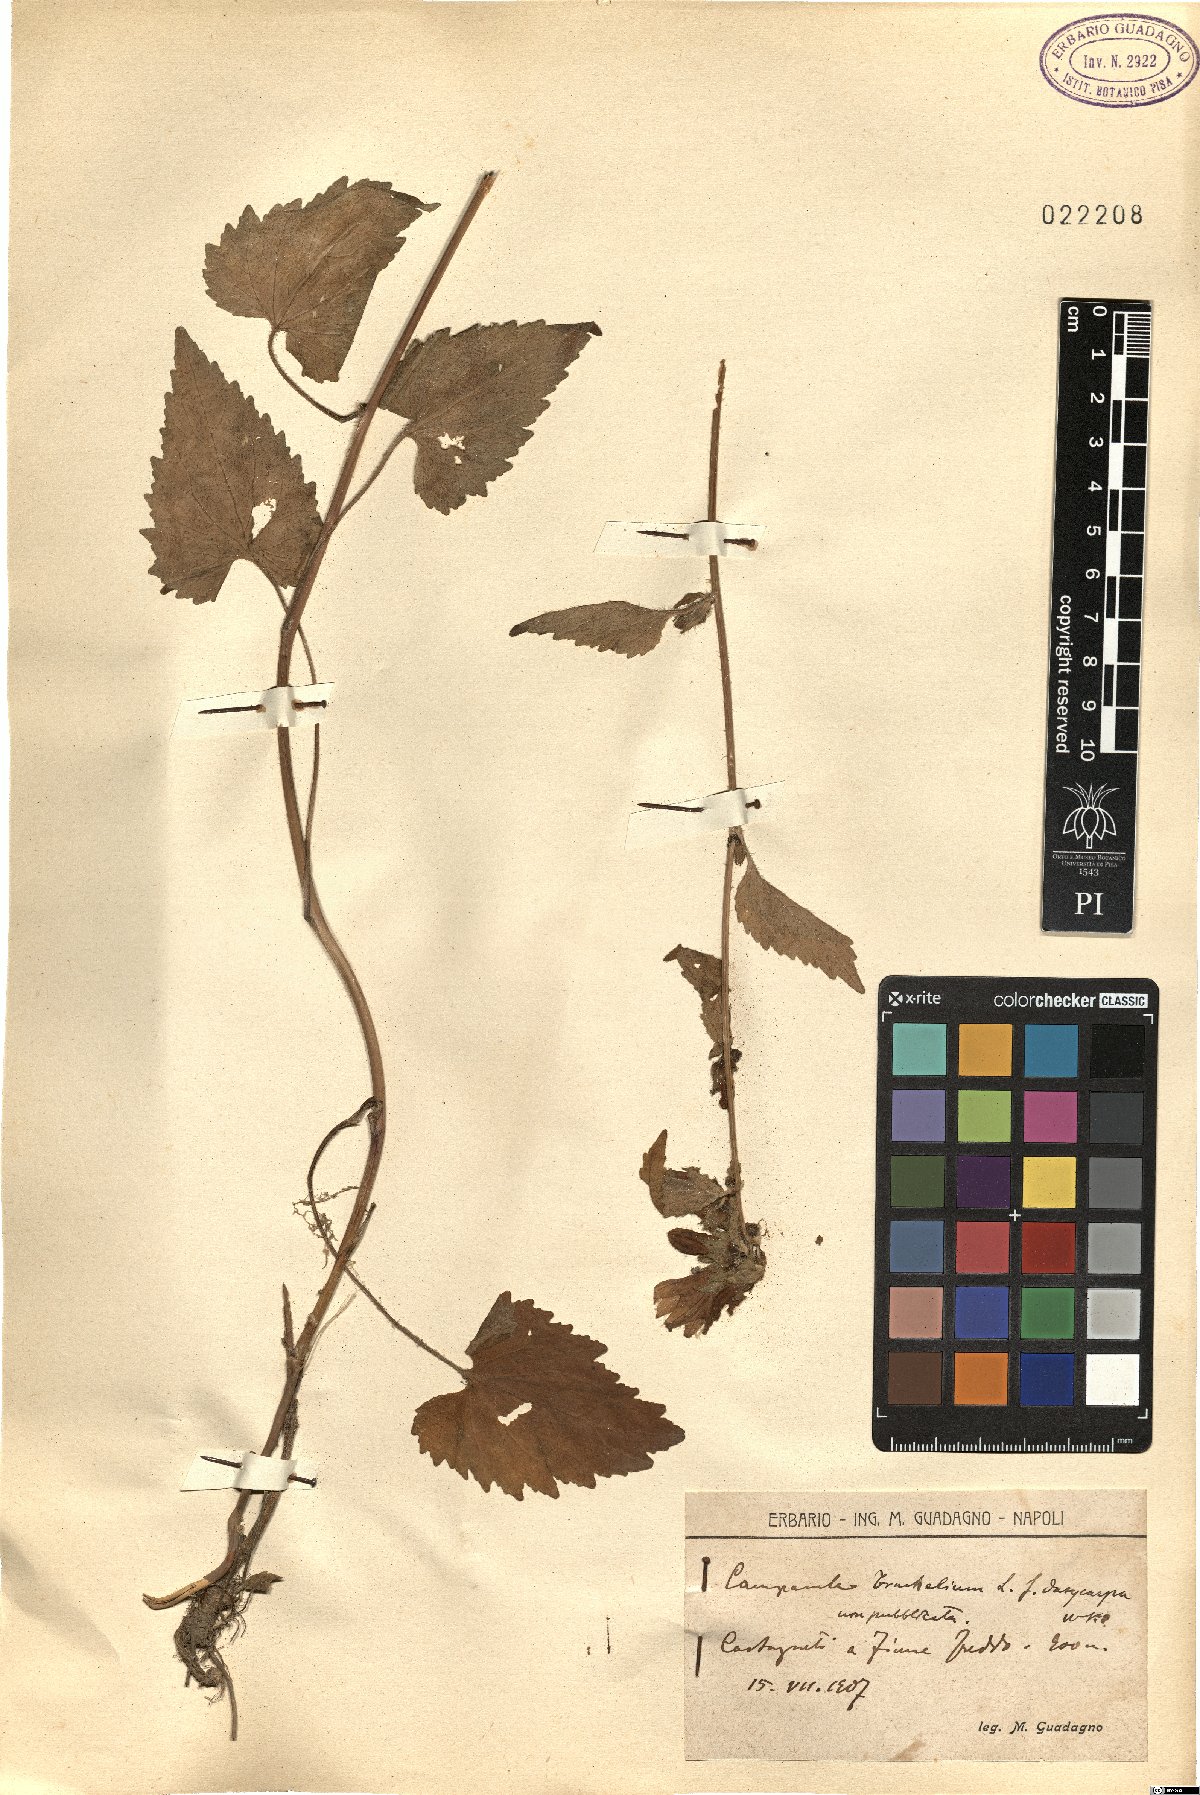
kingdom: Plantae
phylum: Tracheophyta
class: Magnoliopsida
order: Asterales
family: Campanulaceae
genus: Campanula
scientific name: Campanula trachelium
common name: Nettle-leaved bellflower
